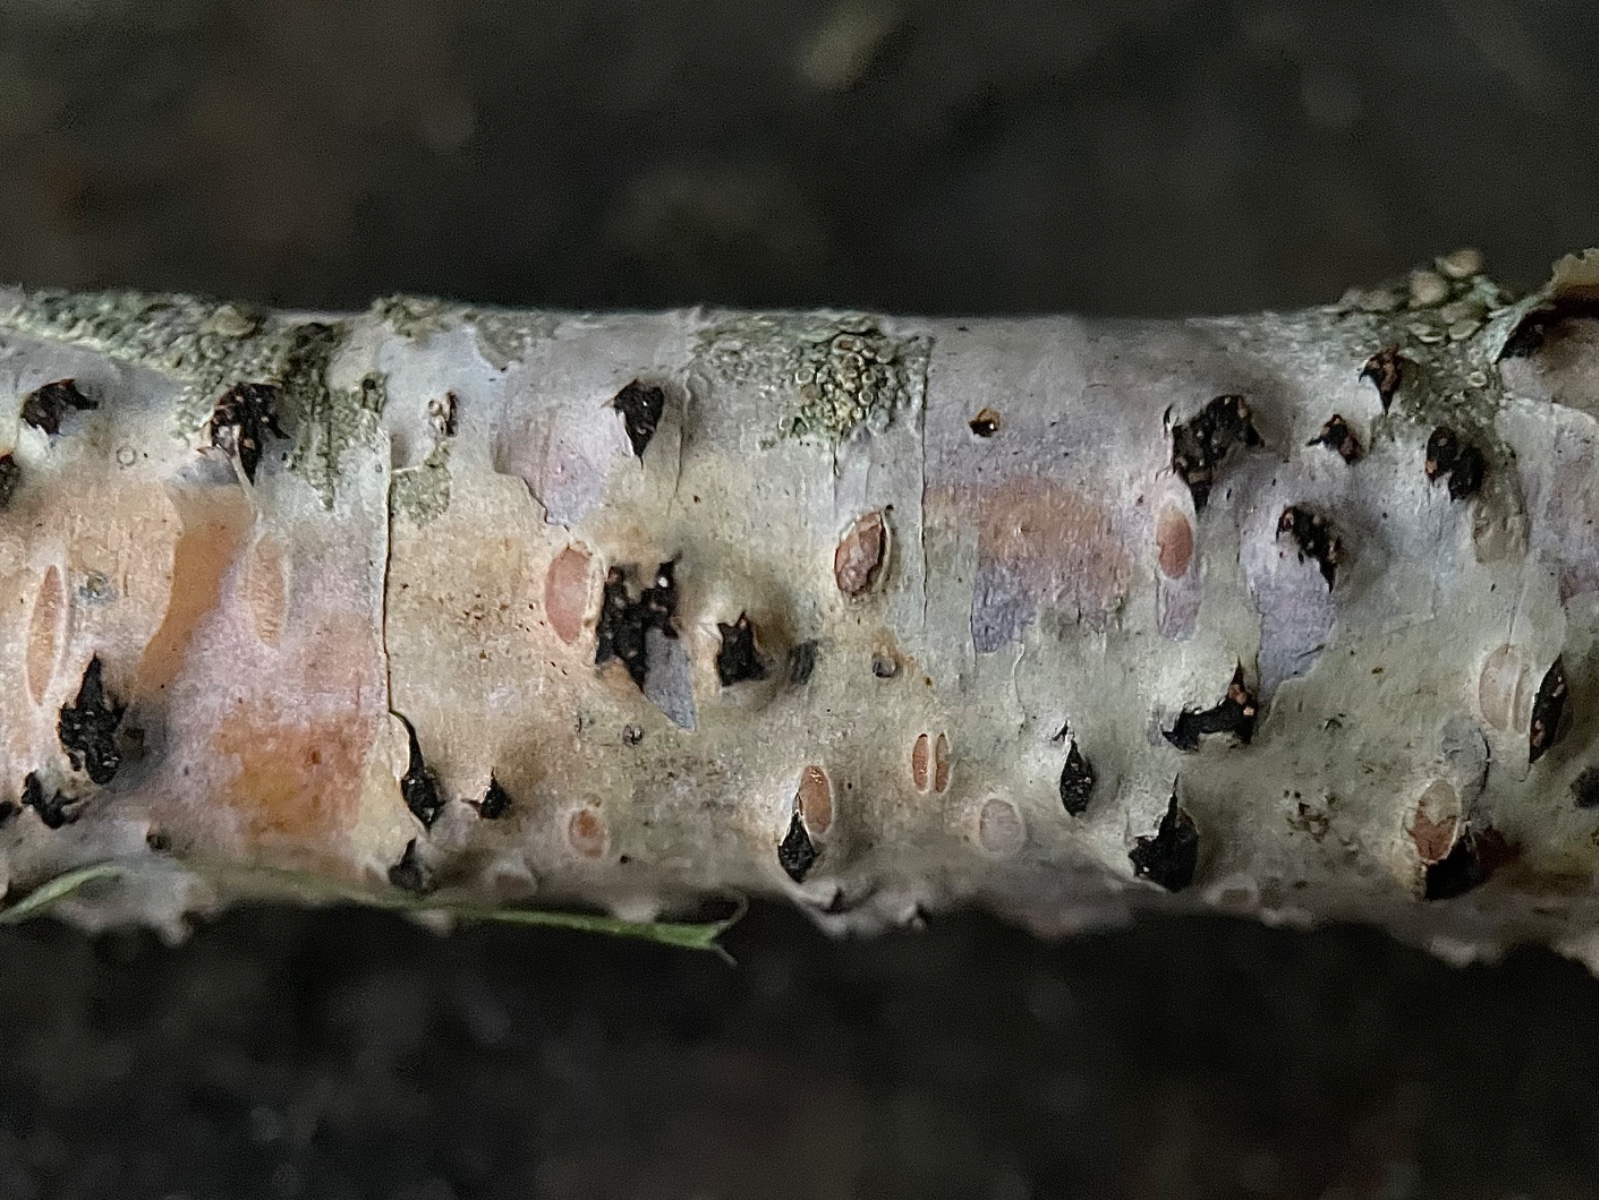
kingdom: Fungi
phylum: Ascomycota
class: Sordariomycetes
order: Xylariales
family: Diatrypaceae
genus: Diatrypella
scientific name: Diatrypella favacea
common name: klemt kulskorpe
